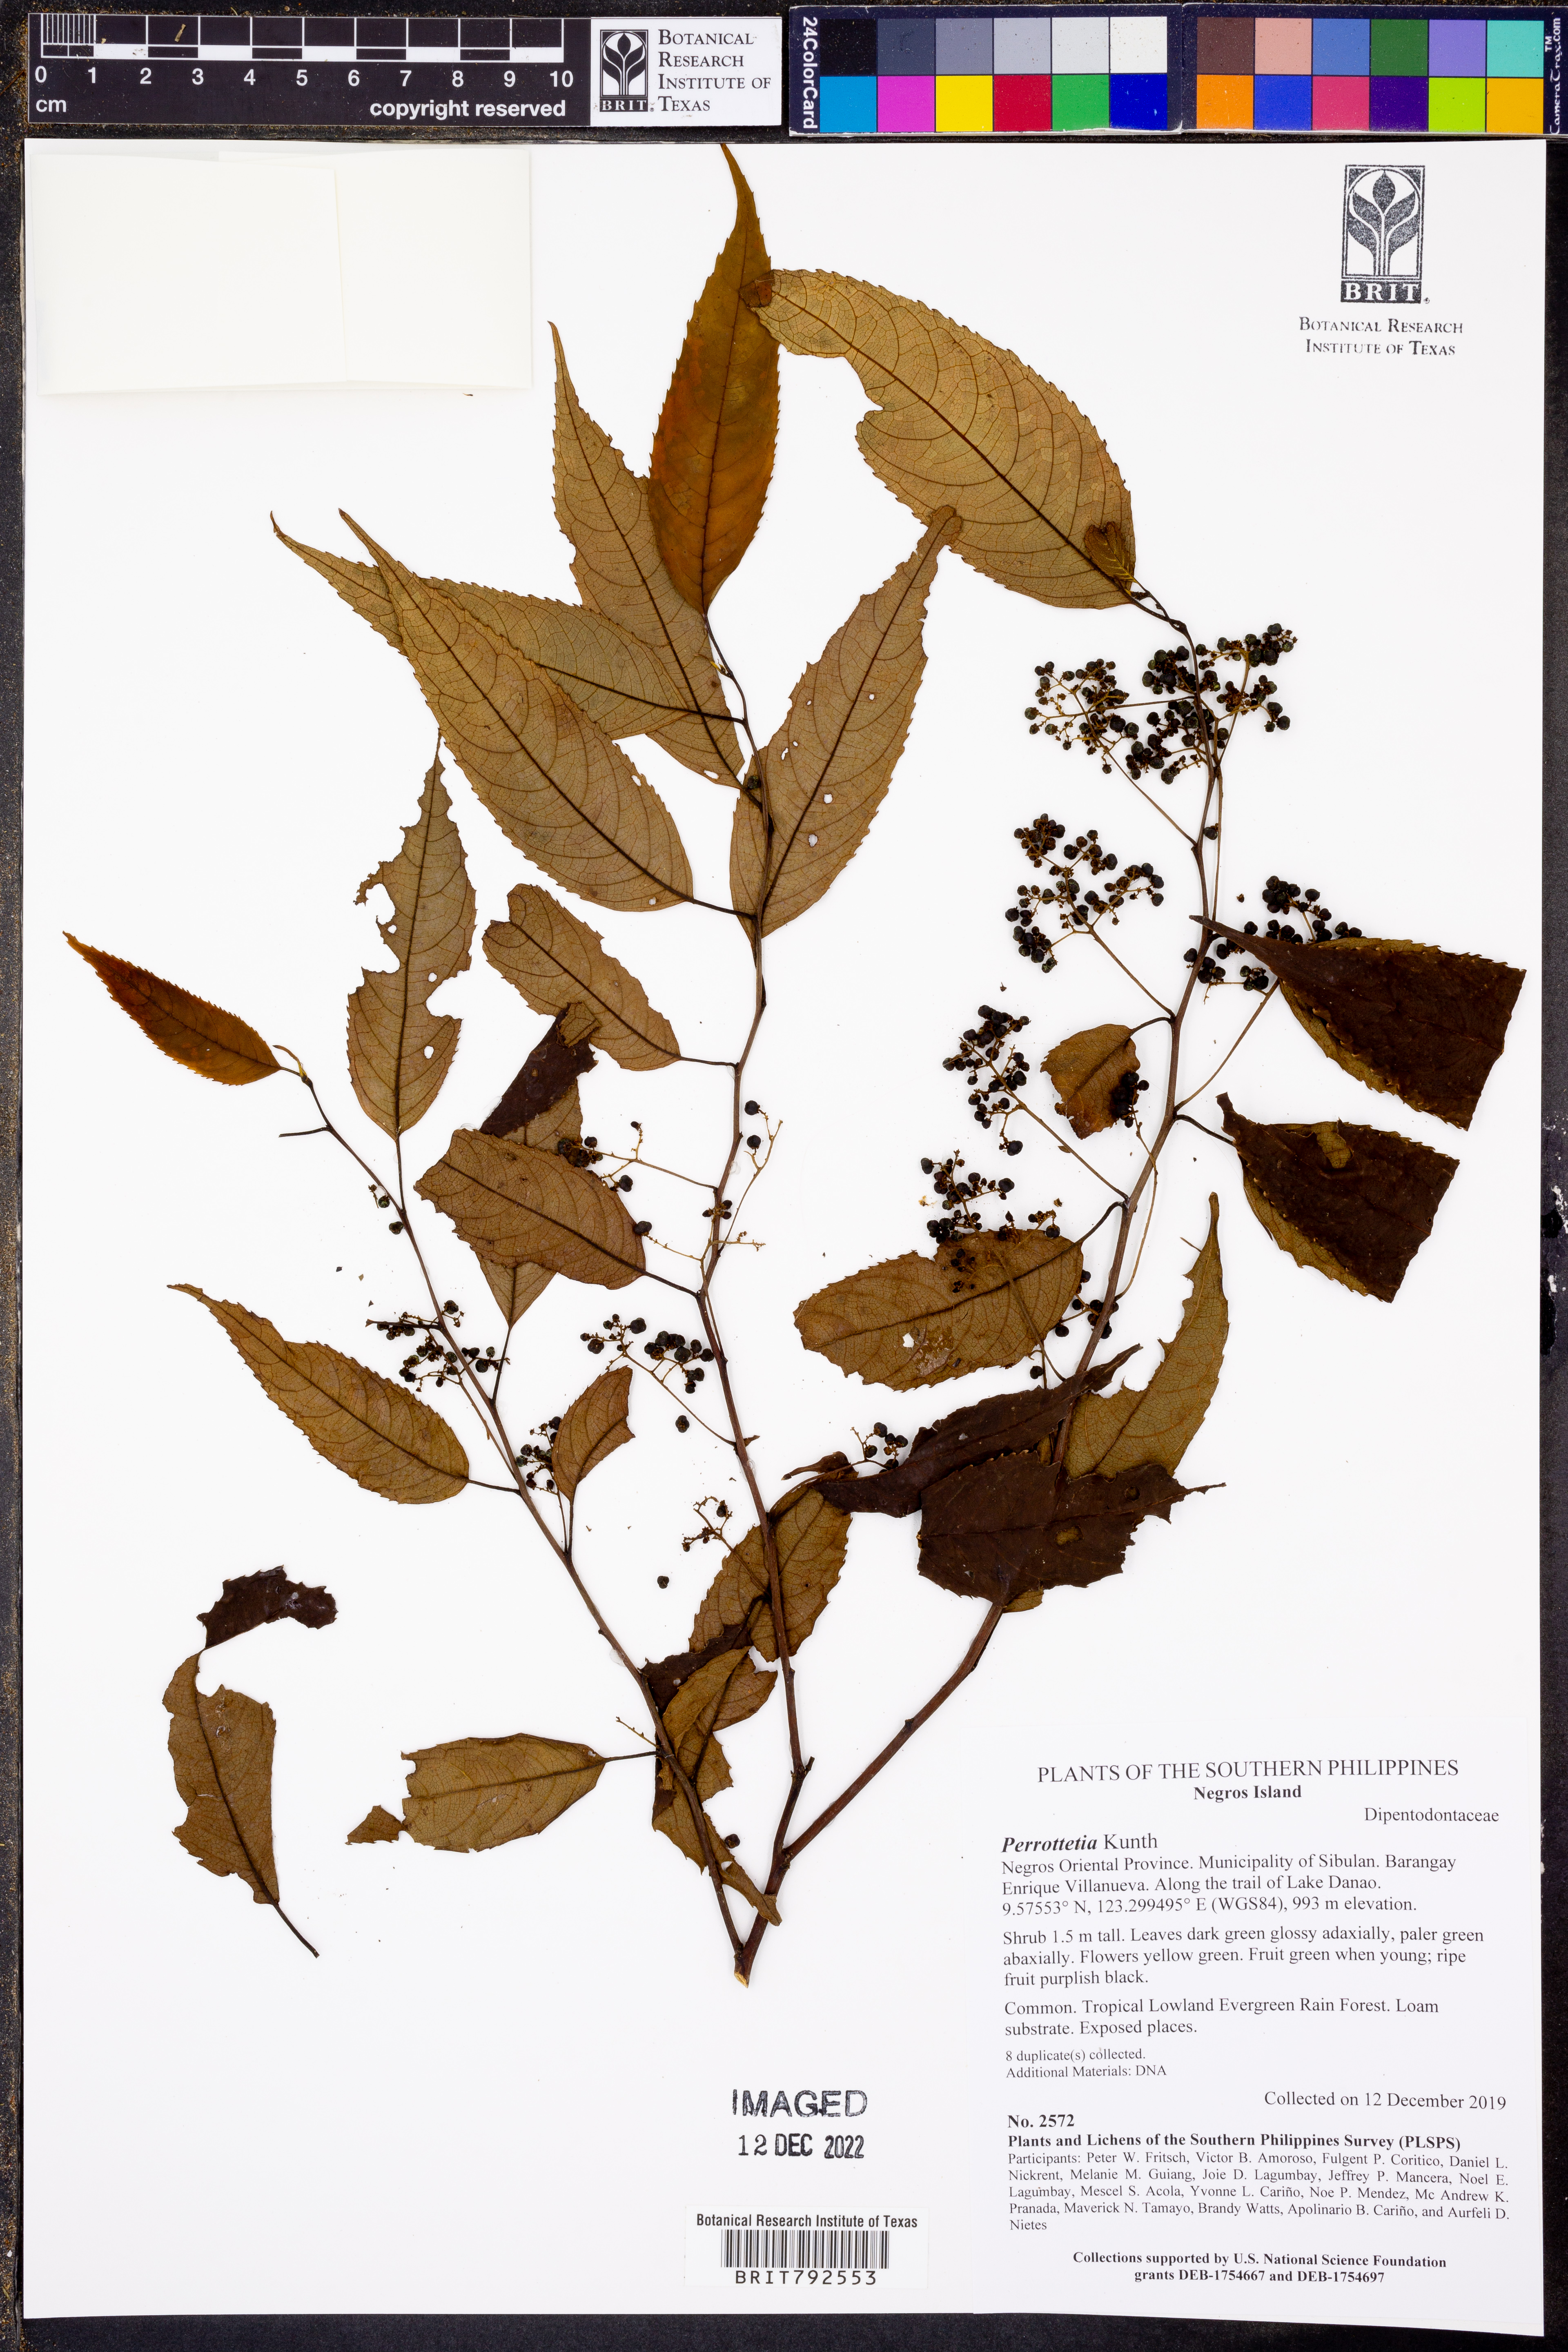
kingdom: Plantae
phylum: Tracheophyta
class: Magnoliopsida
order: Huerteales
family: Dipentodontaceae
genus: Perrottetia
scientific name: Perrottetia
